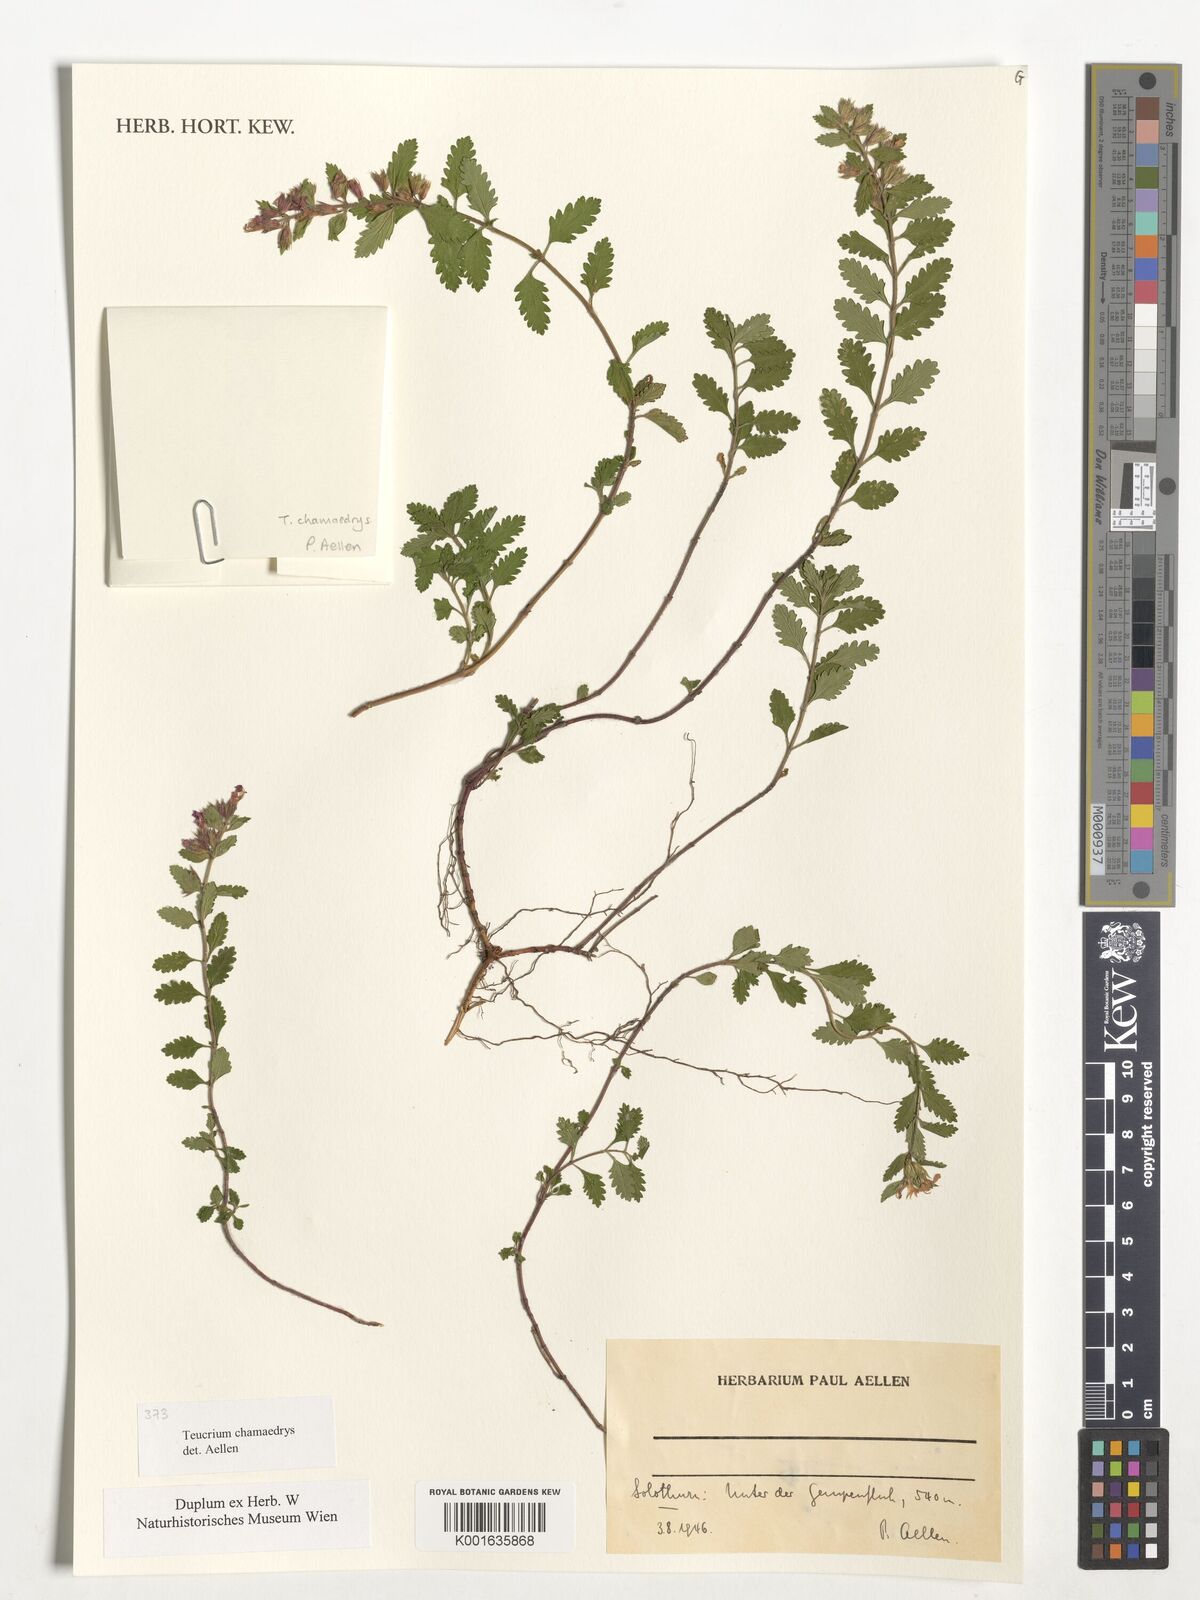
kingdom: Plantae
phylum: Tracheophyta
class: Magnoliopsida
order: Lamiales
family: Lamiaceae
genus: Teucrium
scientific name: Teucrium chamaedrys
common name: Wall germander
